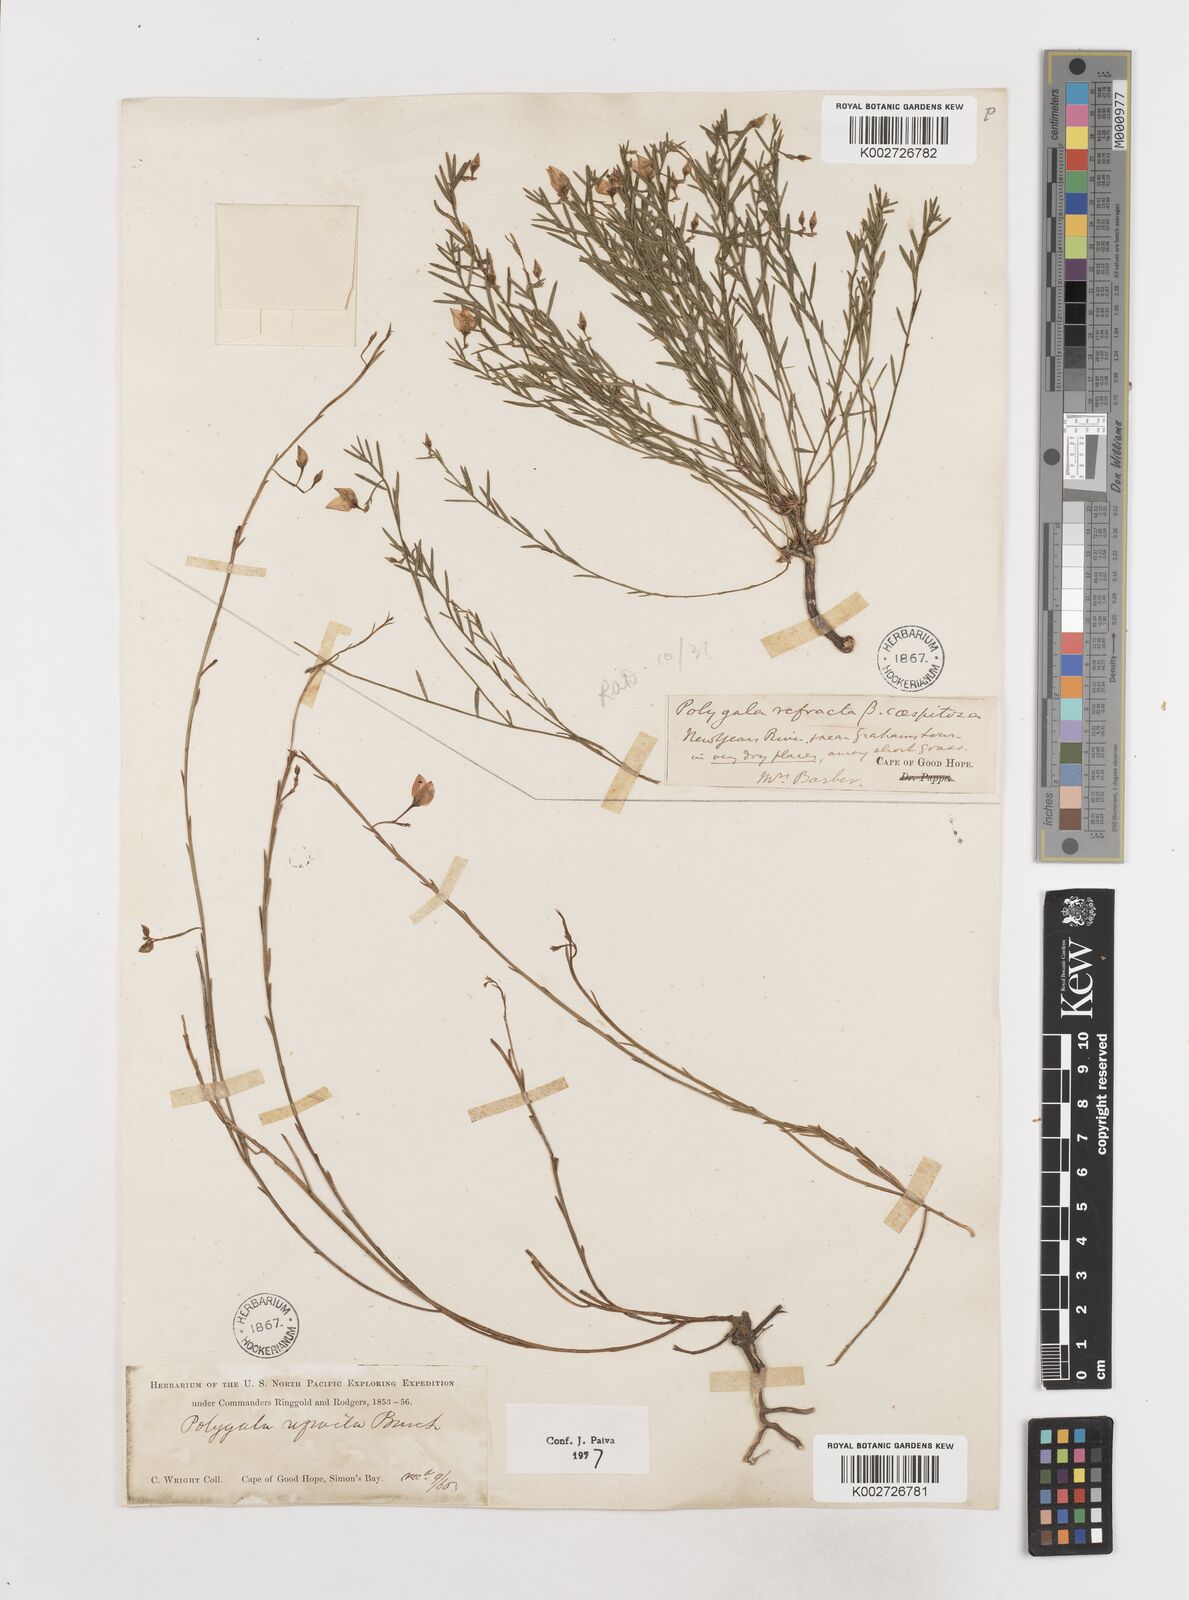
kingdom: Plantae
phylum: Tracheophyta
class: Magnoliopsida
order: Fabales
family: Polygalaceae
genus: Polygala
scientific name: Polygala refracta
